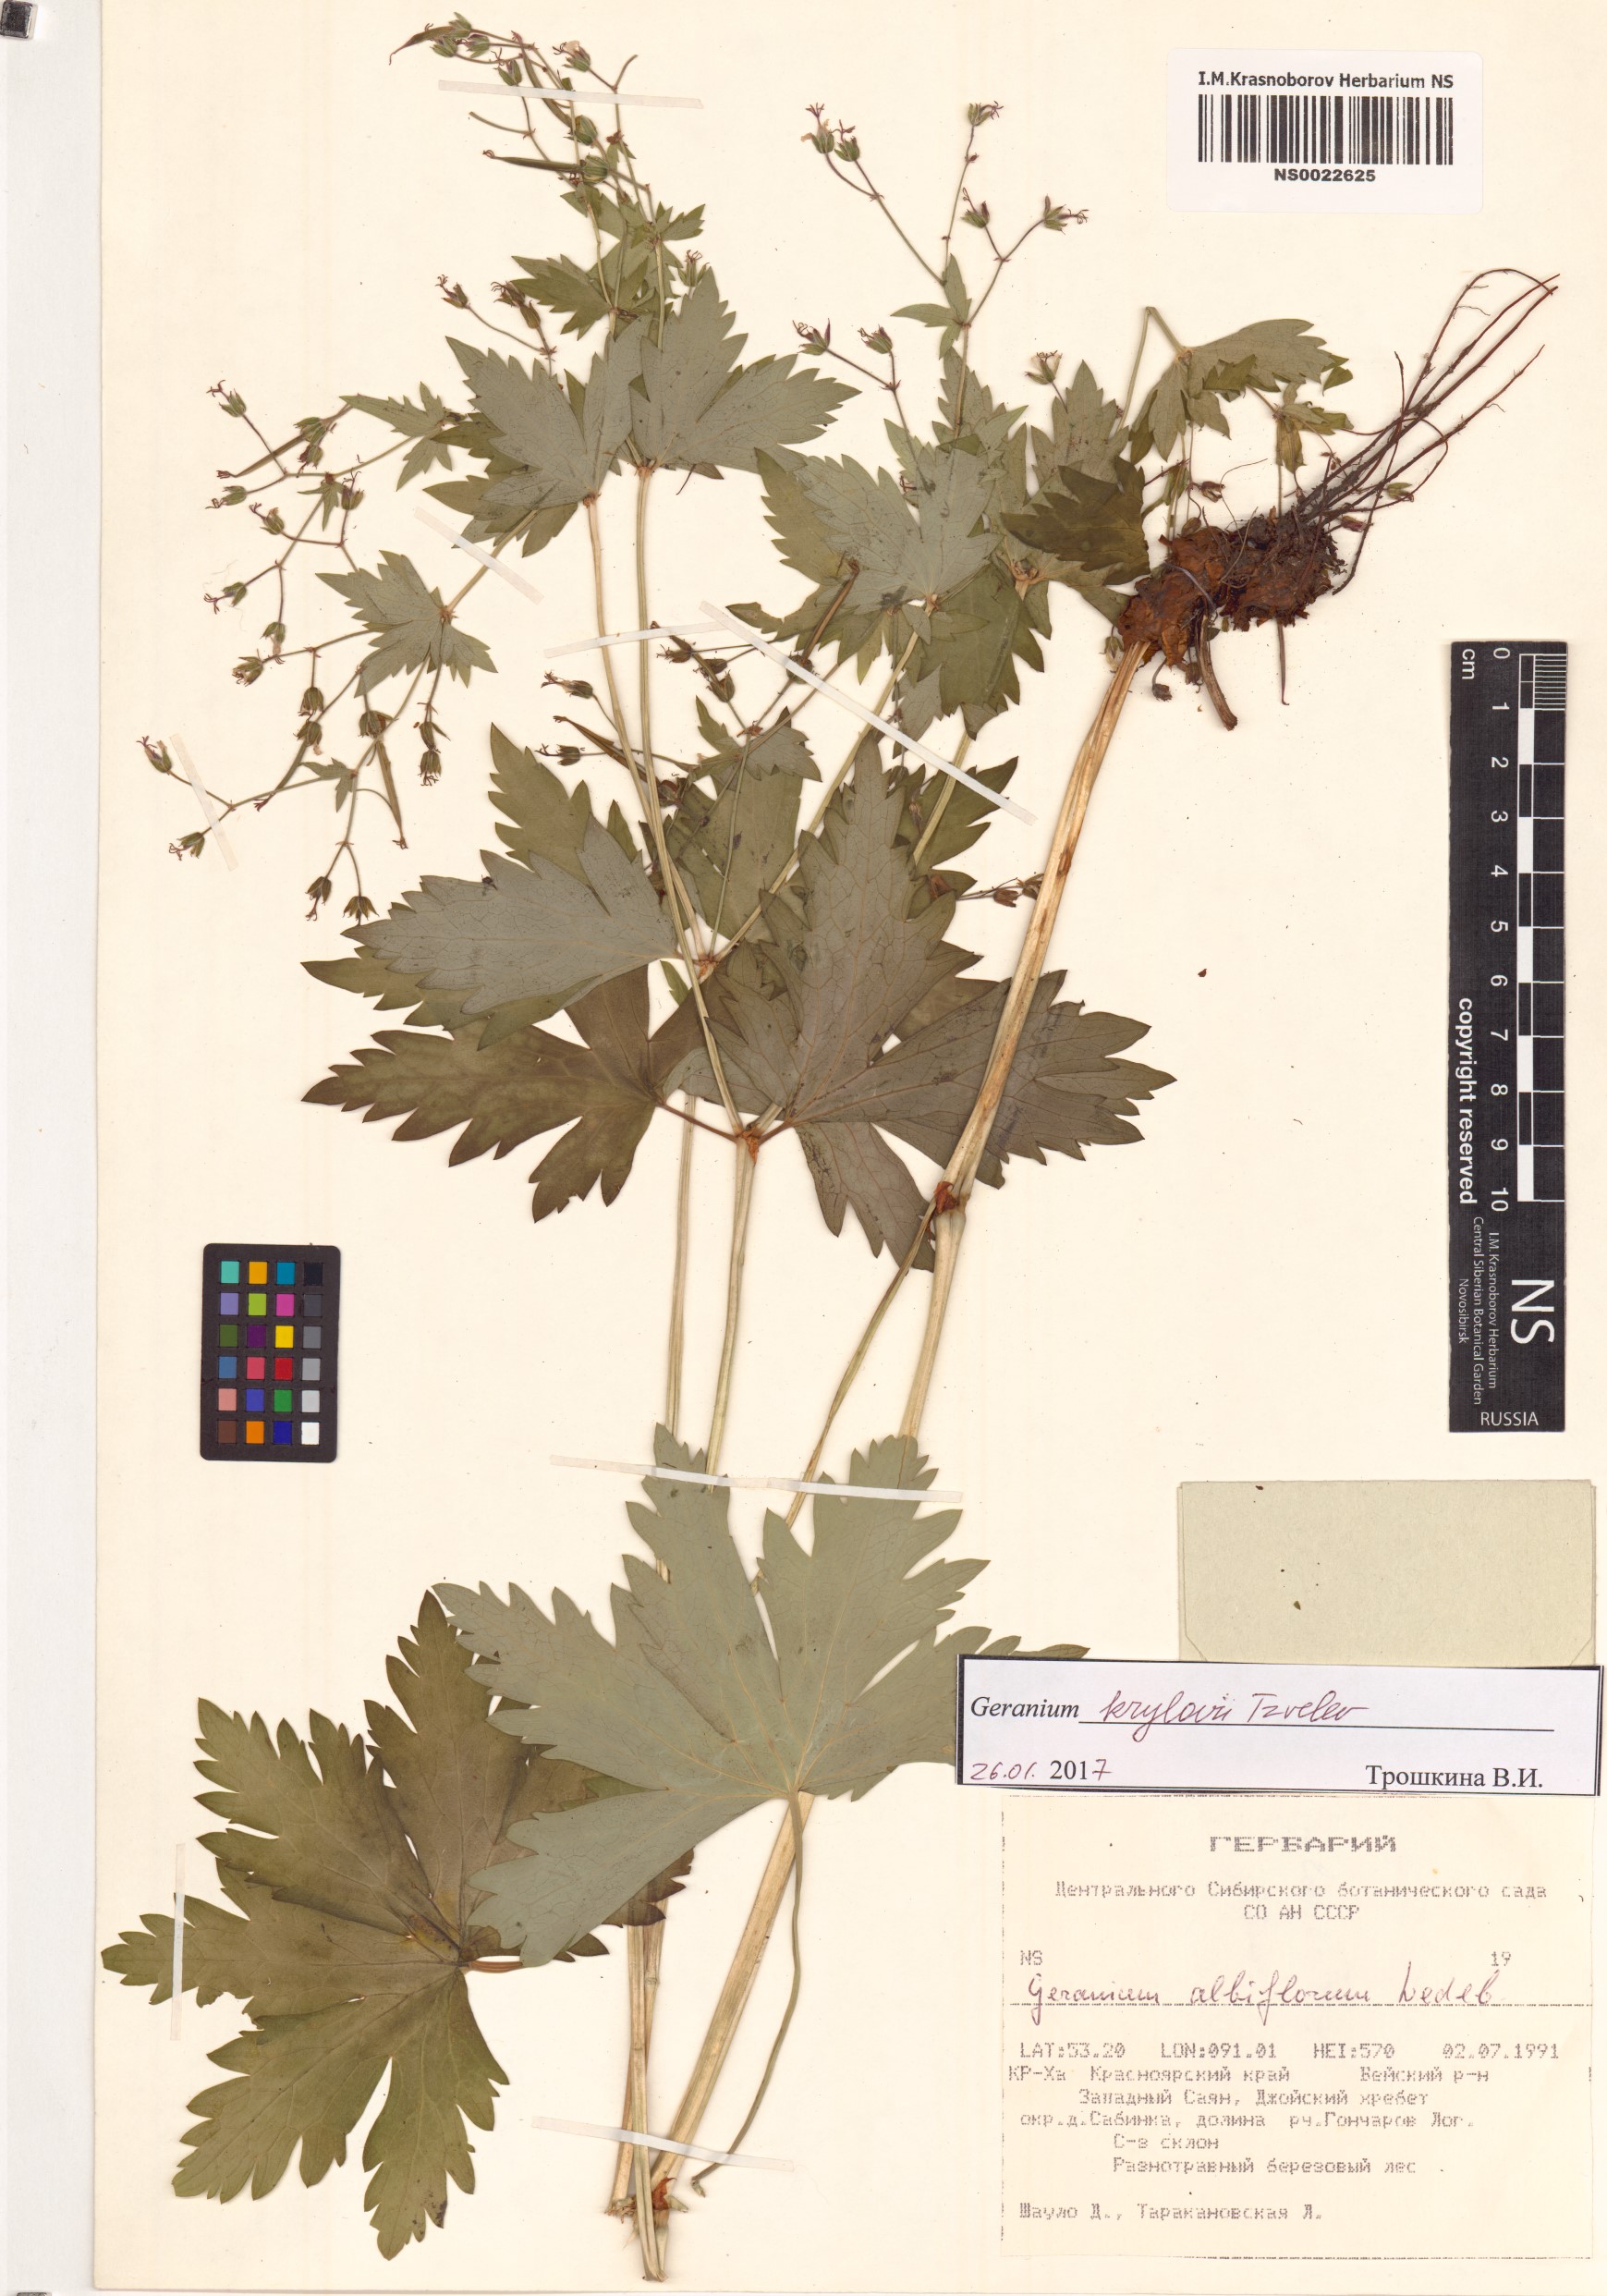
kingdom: Plantae
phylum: Tracheophyta
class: Magnoliopsida
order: Geraniales
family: Geraniaceae
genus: Geranium
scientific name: Geranium sylvaticum
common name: Wood crane's-bill
